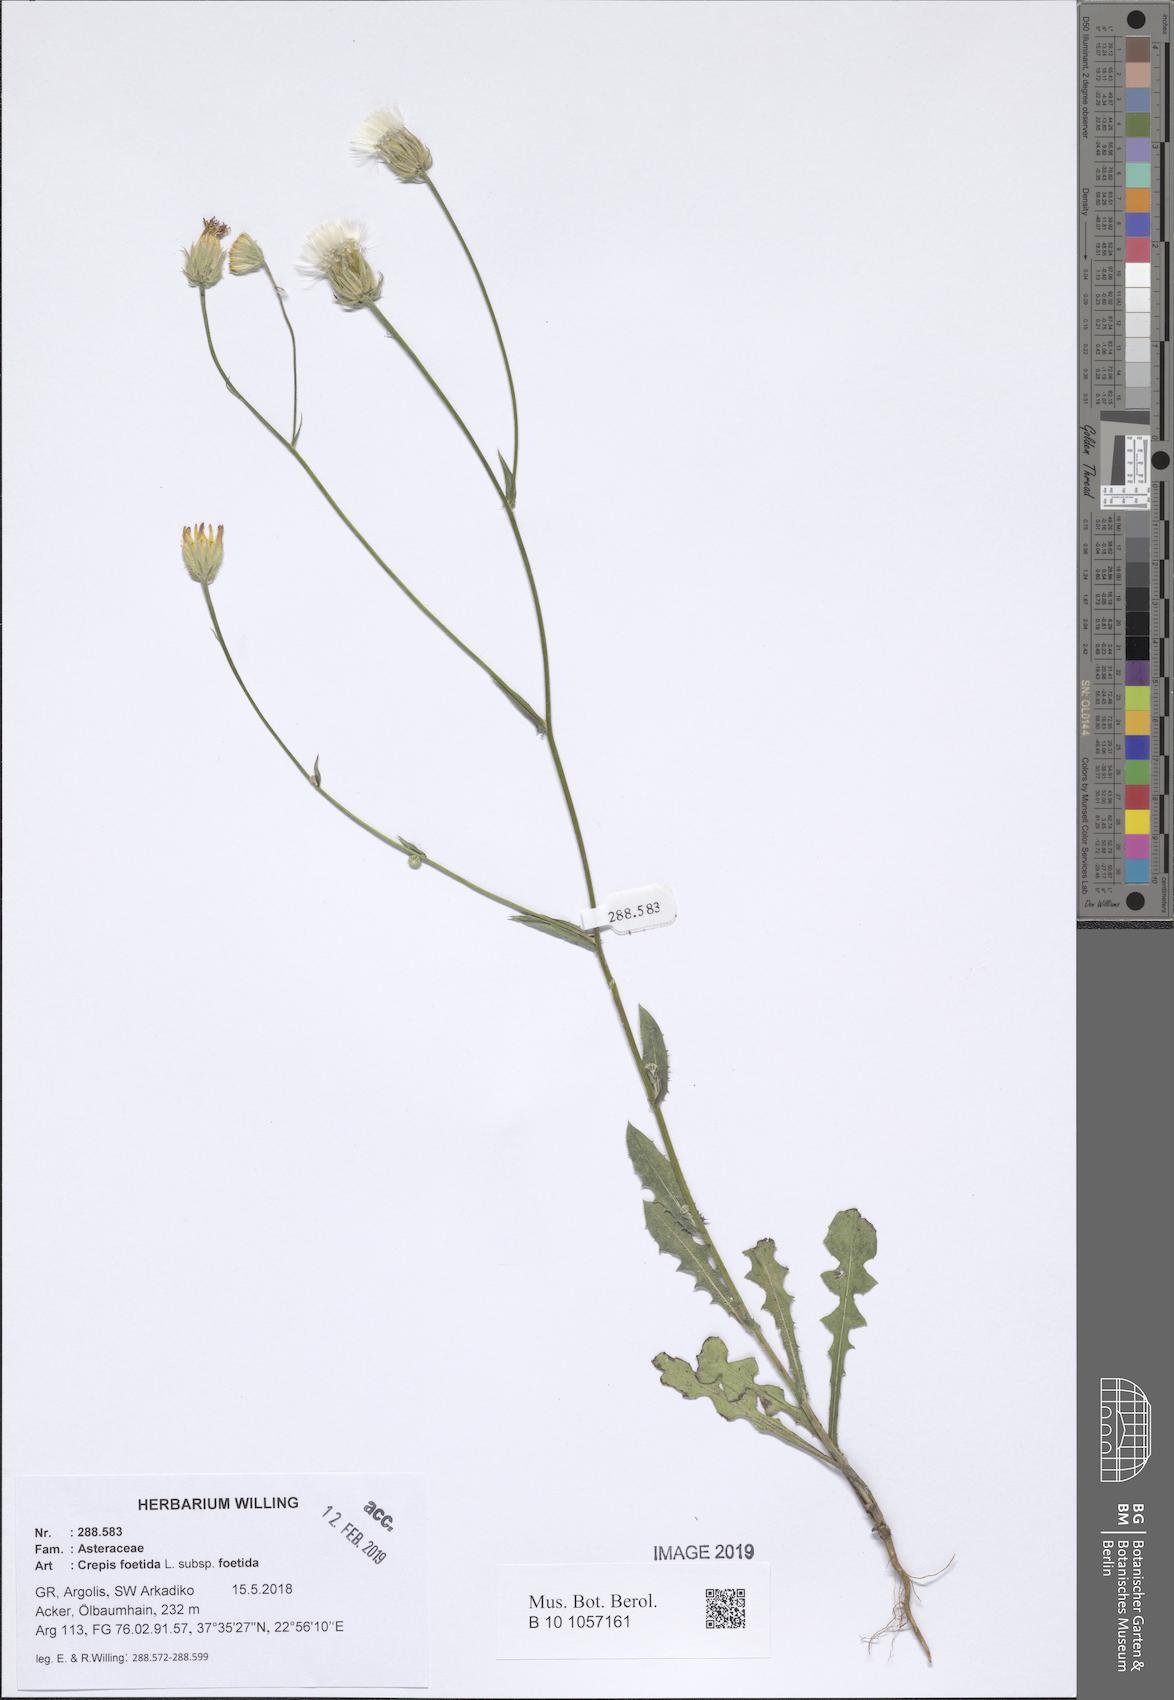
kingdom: Plantae
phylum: Tracheophyta
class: Magnoliopsida
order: Asterales
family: Asteraceae
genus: Crepis
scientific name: Crepis foetida
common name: Stinking hawk's-beard
